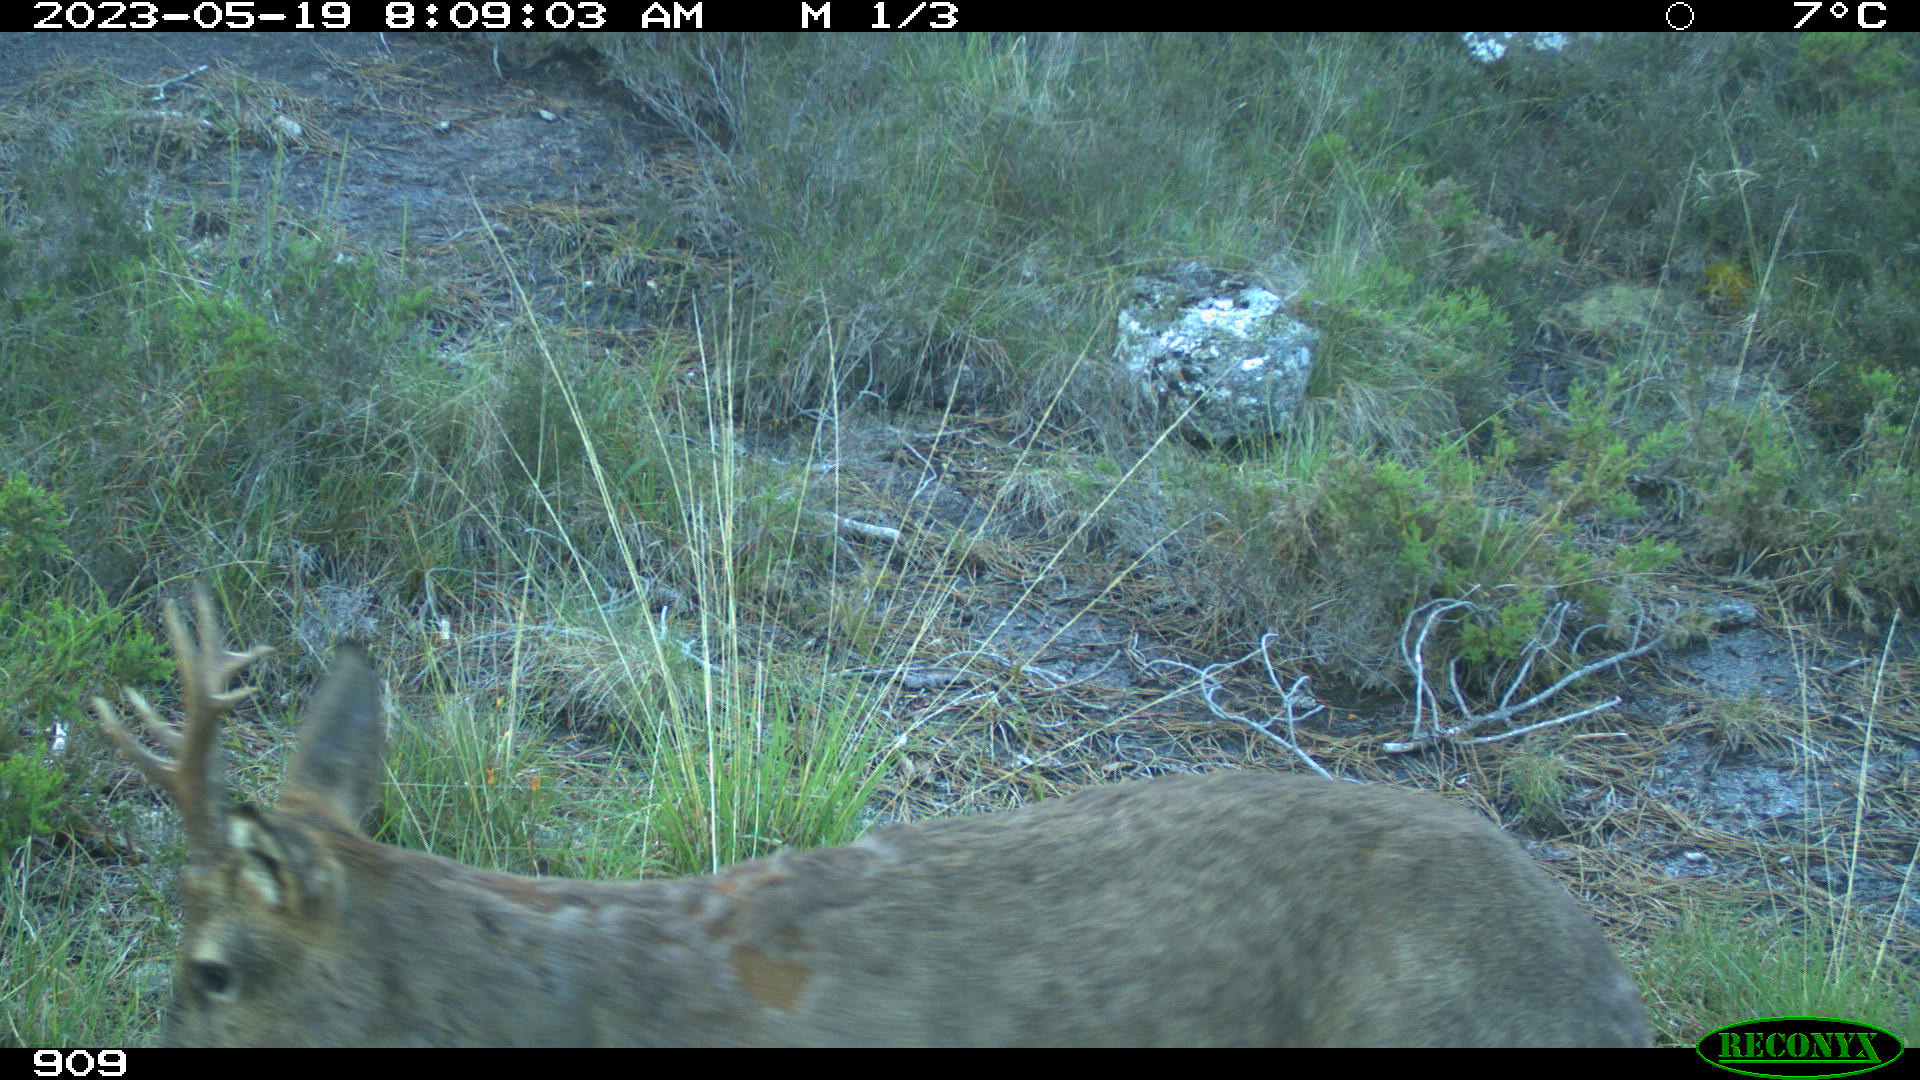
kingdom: Animalia
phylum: Chordata
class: Mammalia
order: Artiodactyla
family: Cervidae
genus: Capreolus
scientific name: Capreolus capreolus
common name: Western roe deer
